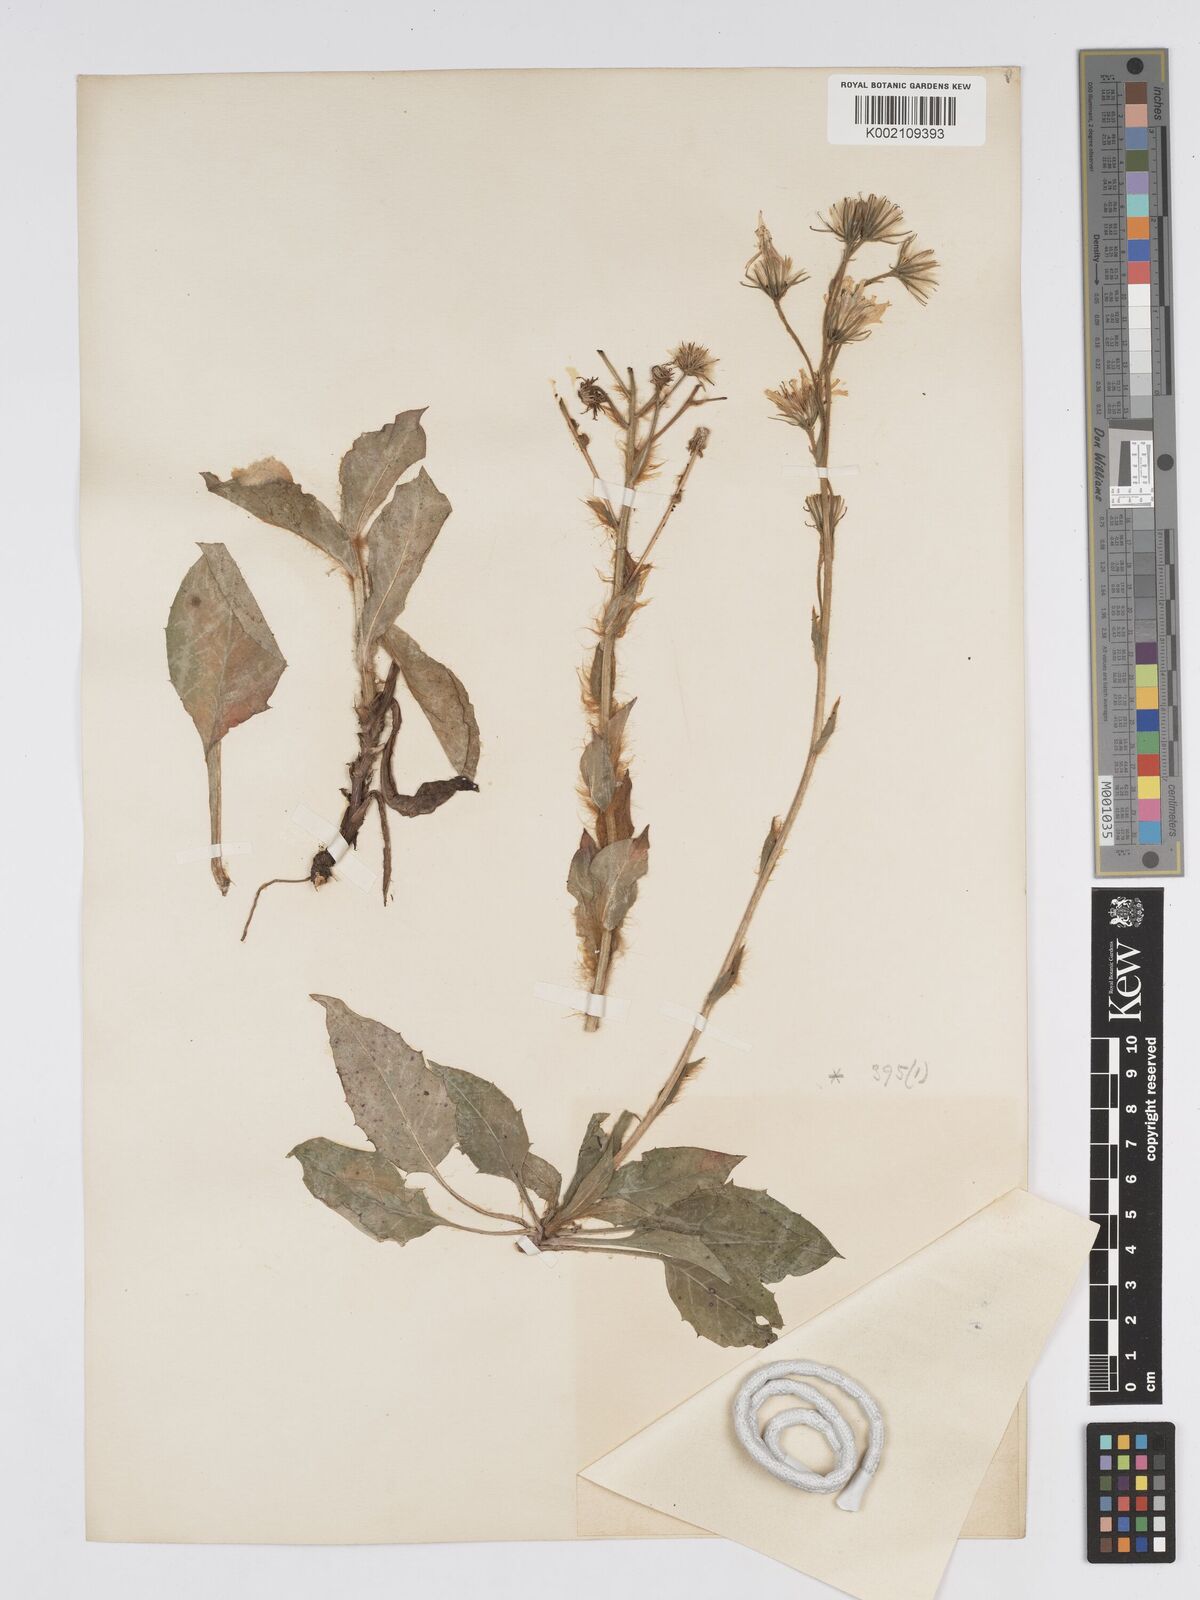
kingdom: Plantae
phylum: Tracheophyta
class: Magnoliopsida
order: Asterales
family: Asteraceae
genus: Hieracium
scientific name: Hieracium racemosum
